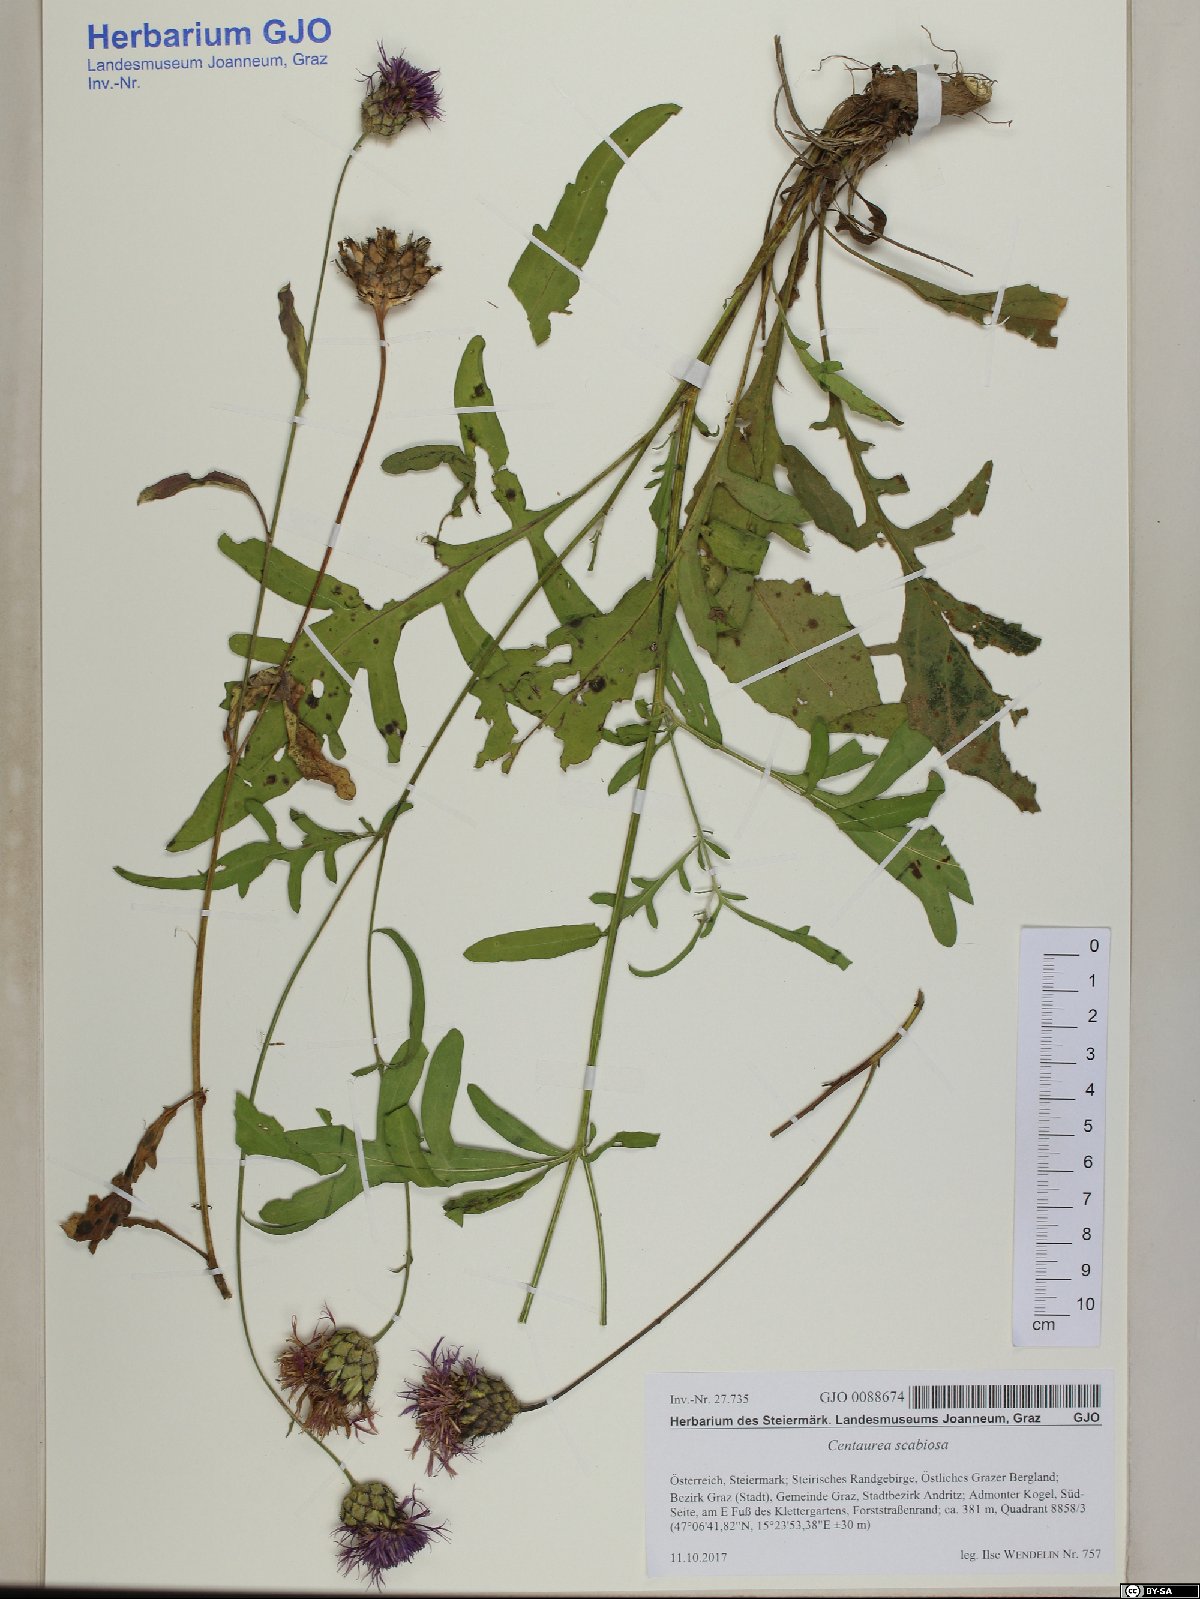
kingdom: Plantae
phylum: Tracheophyta
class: Magnoliopsida
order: Asterales
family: Asteraceae
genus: Centaurea
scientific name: Centaurea scabiosa
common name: Greater knapweed
